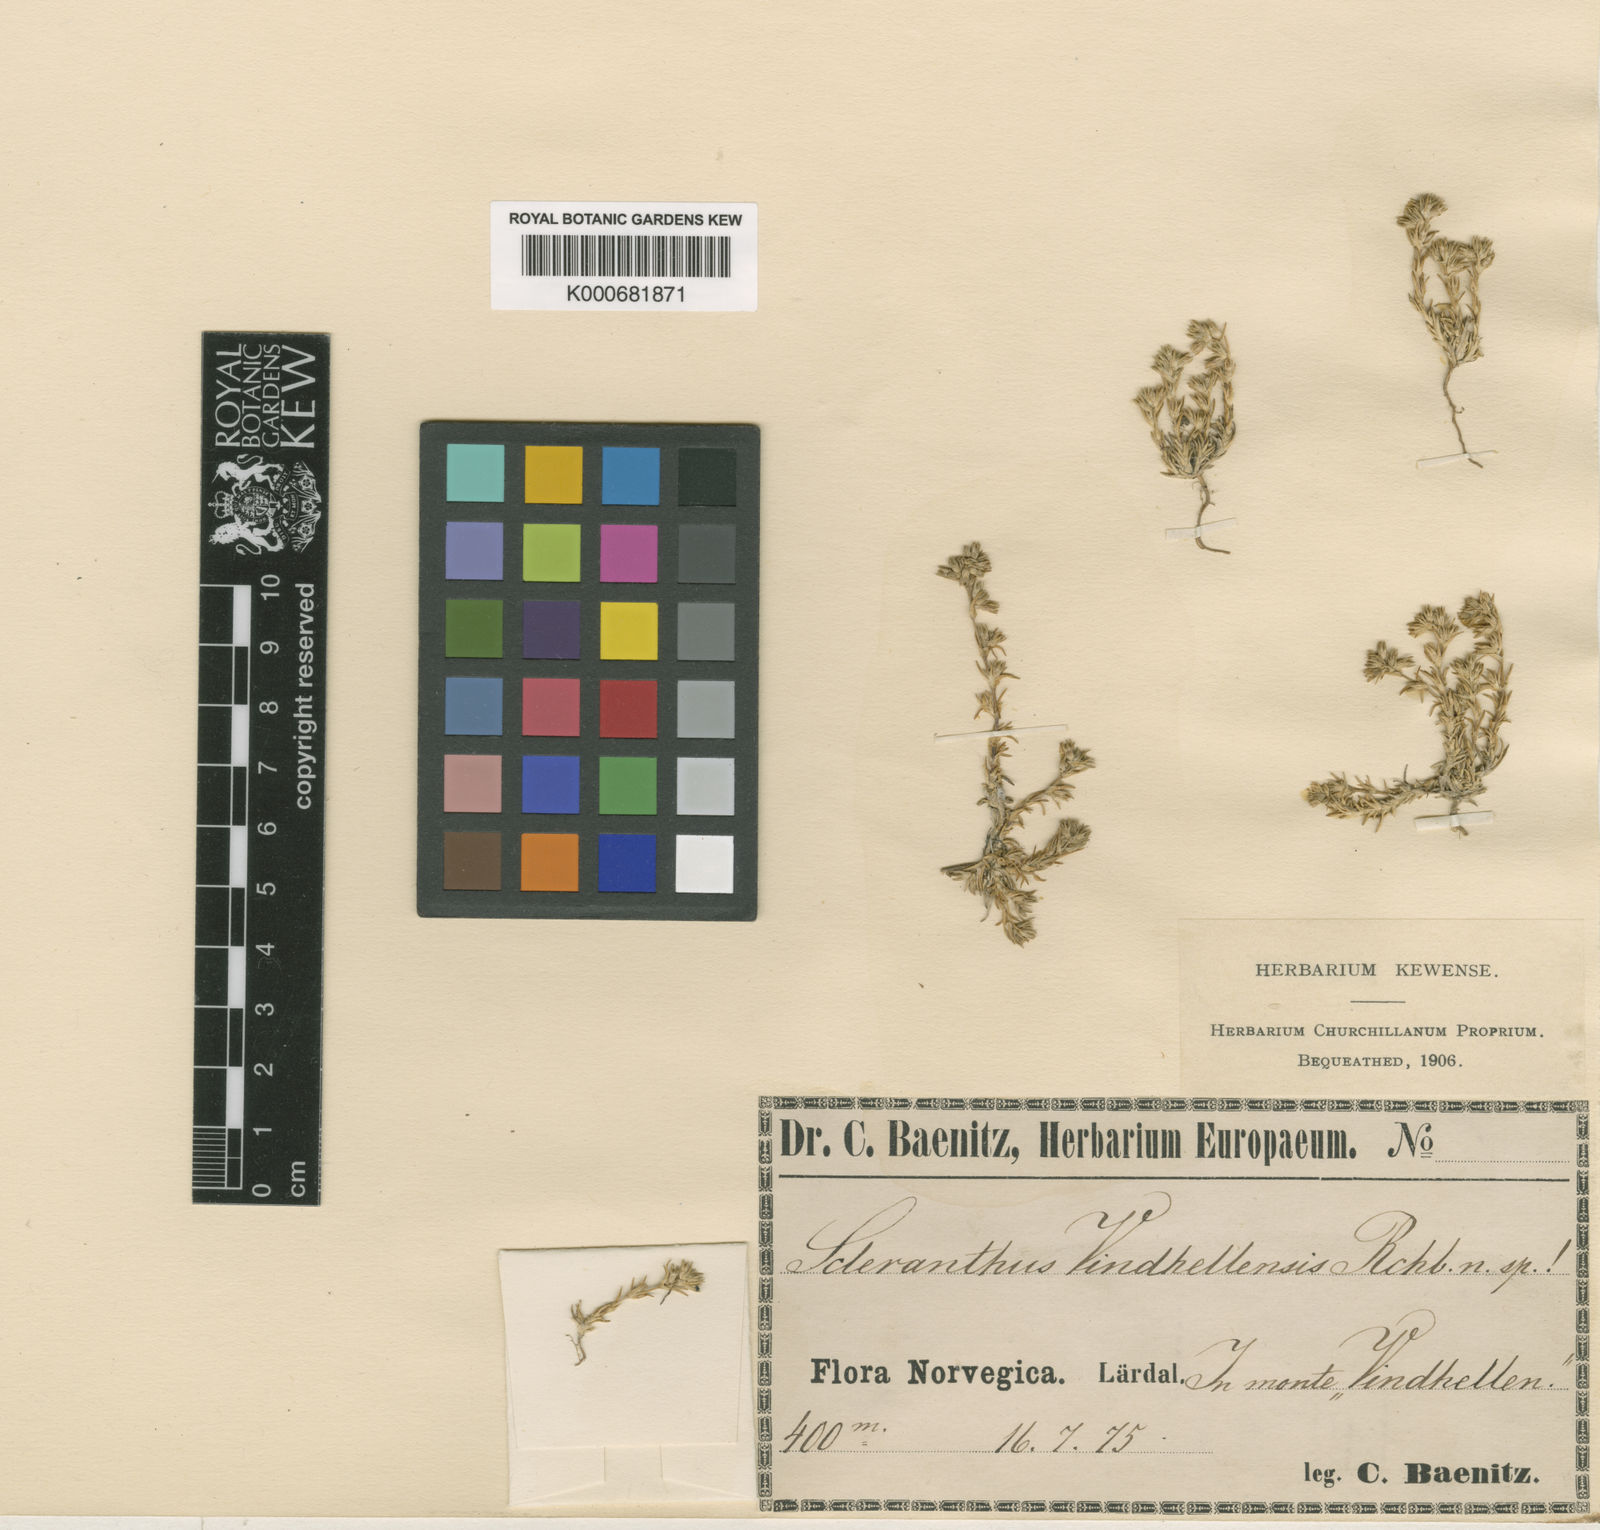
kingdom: Plantae
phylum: Tracheophyta
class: Magnoliopsida
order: Caryophyllales
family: Caryophyllaceae
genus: Scleranthus
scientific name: Scleranthus annuus
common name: Annual knawel
